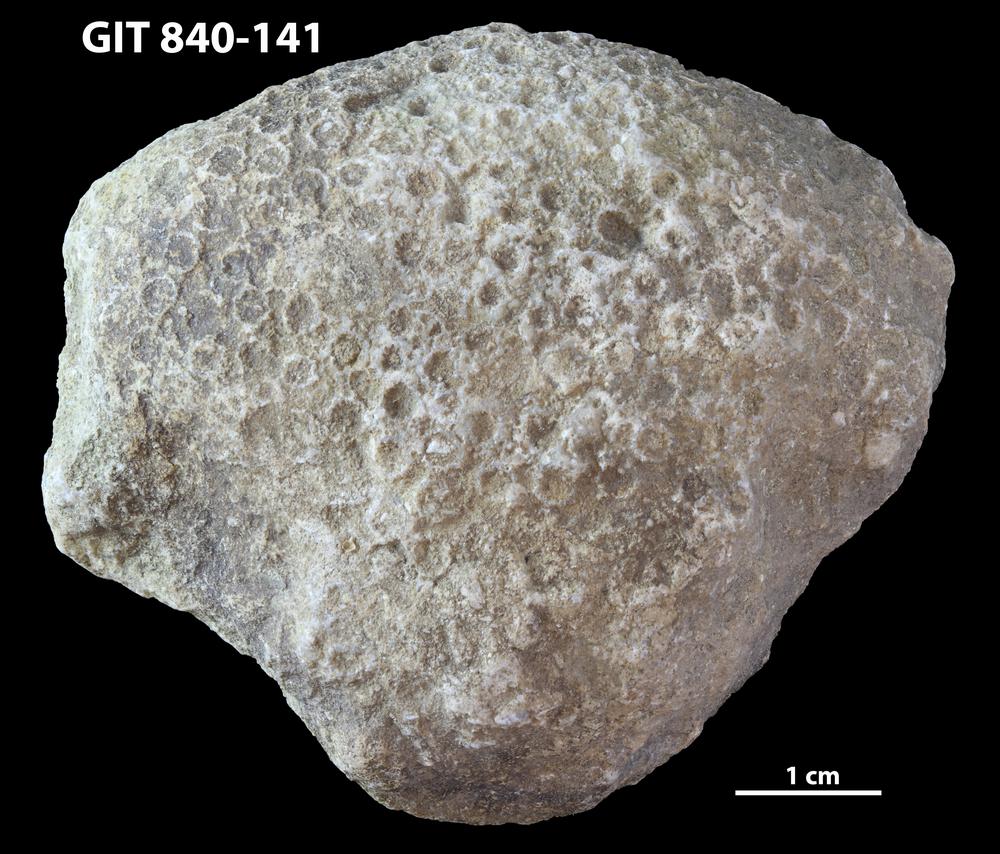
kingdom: Animalia
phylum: Xenacoelomorpha
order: Acoela
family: Proporidae
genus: Propora
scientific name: Propora
